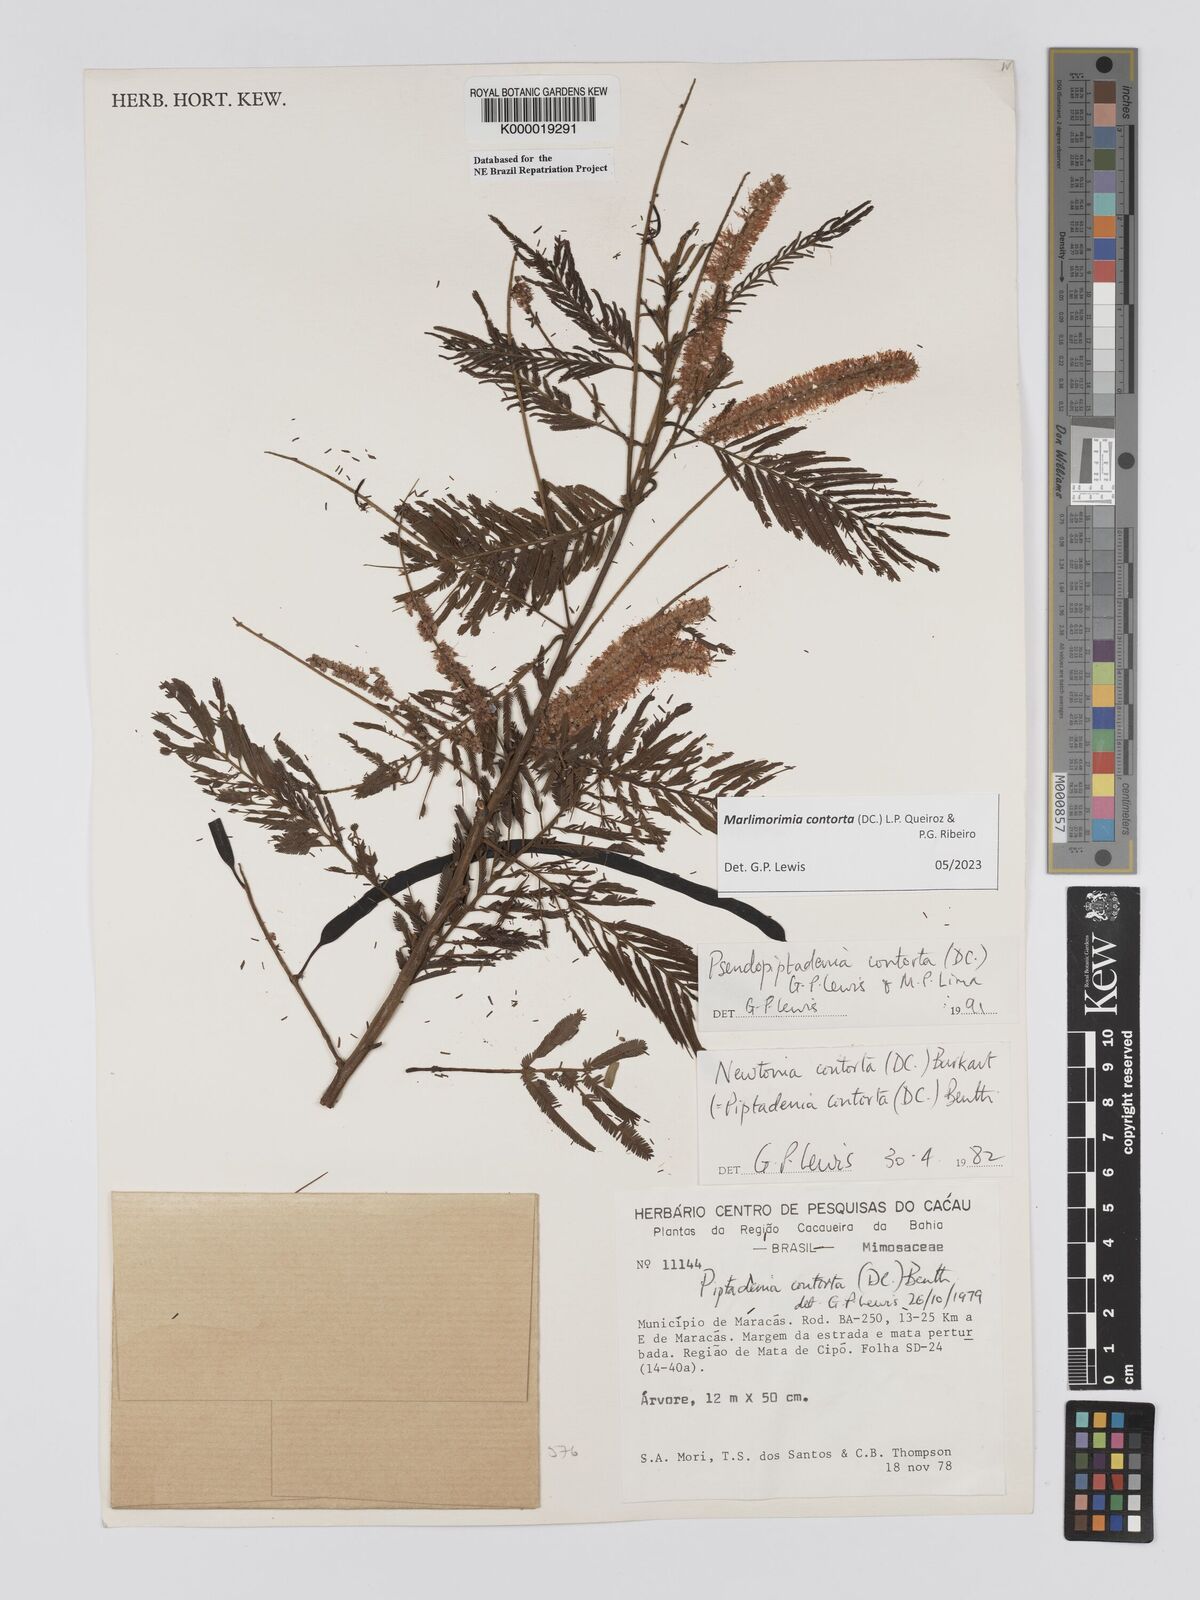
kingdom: Plantae
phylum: Tracheophyta
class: Magnoliopsida
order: Fabales
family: Fabaceae
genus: Pseudopiptadenia
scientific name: Pseudopiptadenia contorta
